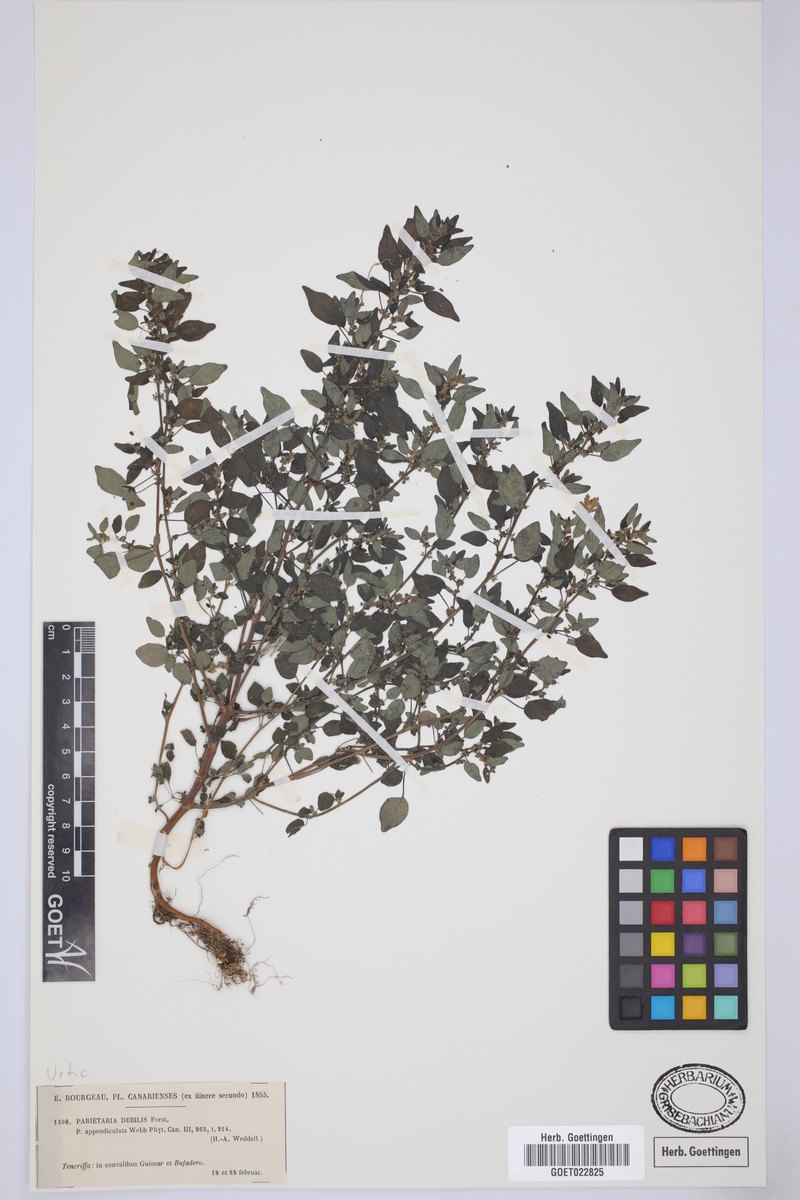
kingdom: Plantae
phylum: Tracheophyta
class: Magnoliopsida
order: Rosales
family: Urticaceae
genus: Parietaria
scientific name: Parietaria debilis
